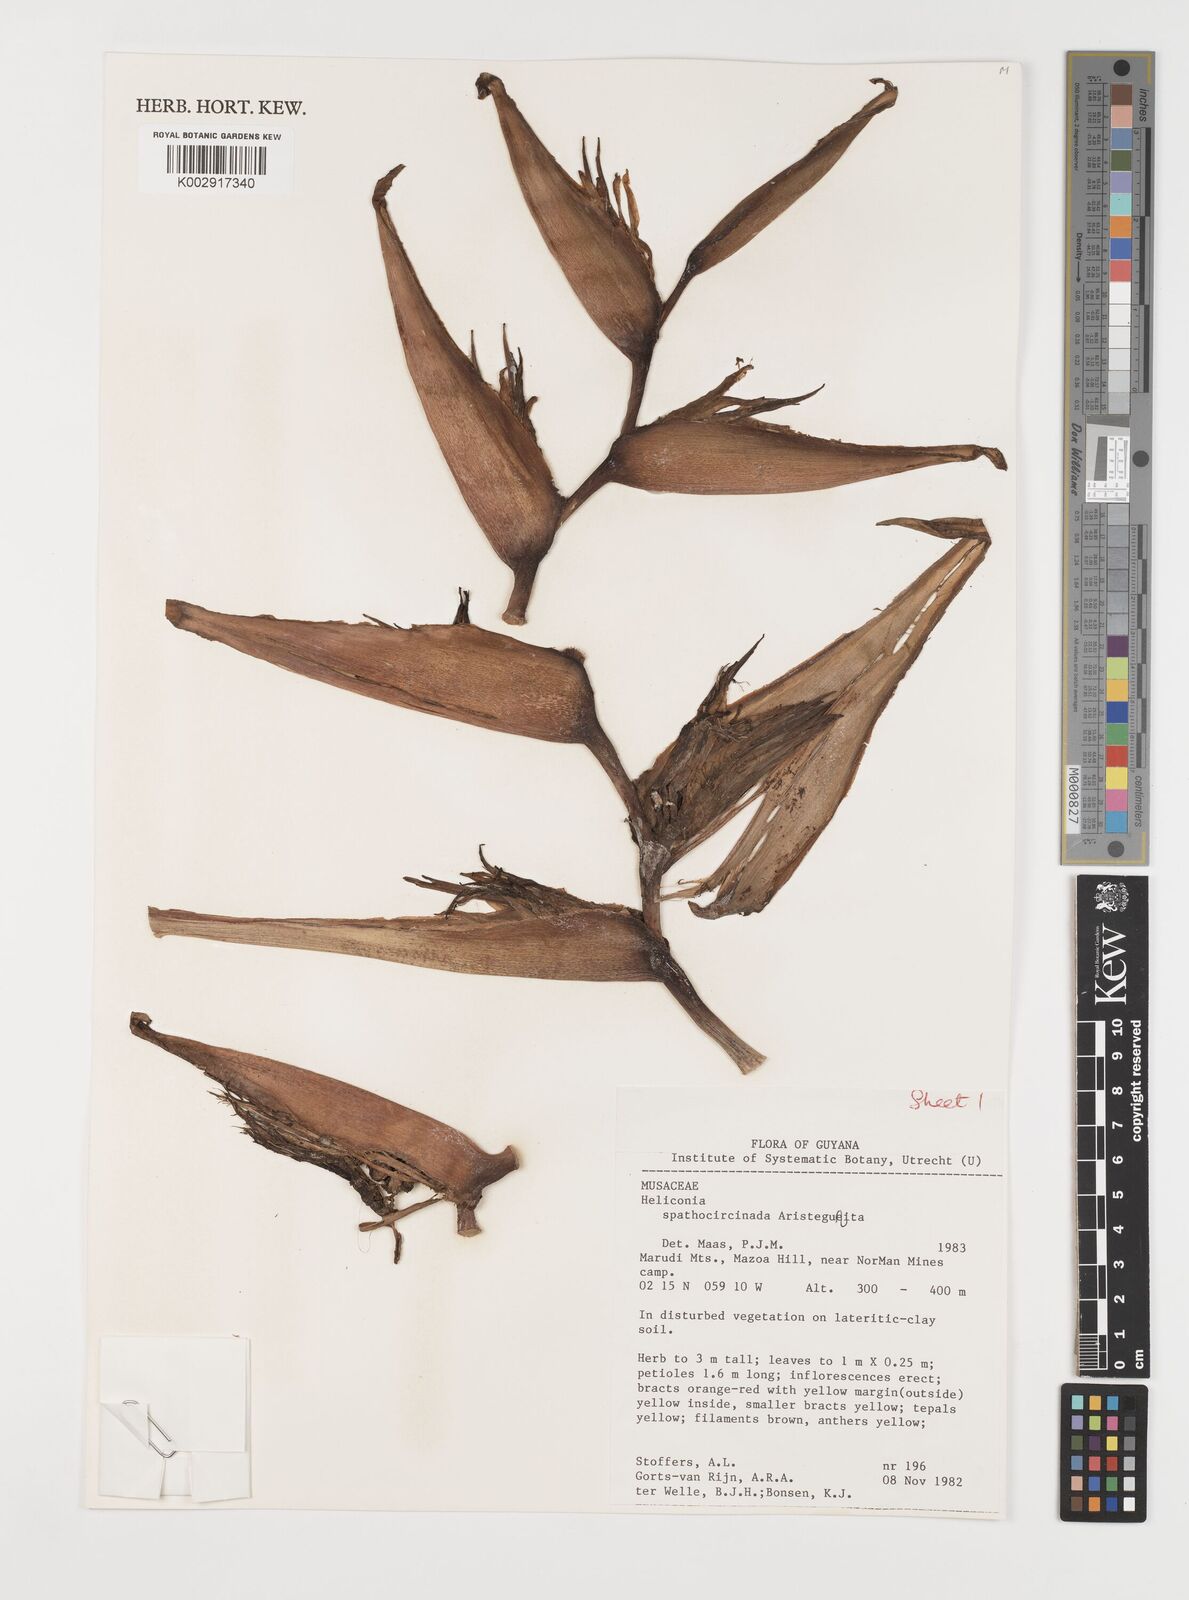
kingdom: Plantae
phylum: Tracheophyta
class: Liliopsida
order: Zingiberales
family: Heliconiaceae
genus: Heliconia
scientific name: Heliconia spathocircinata
